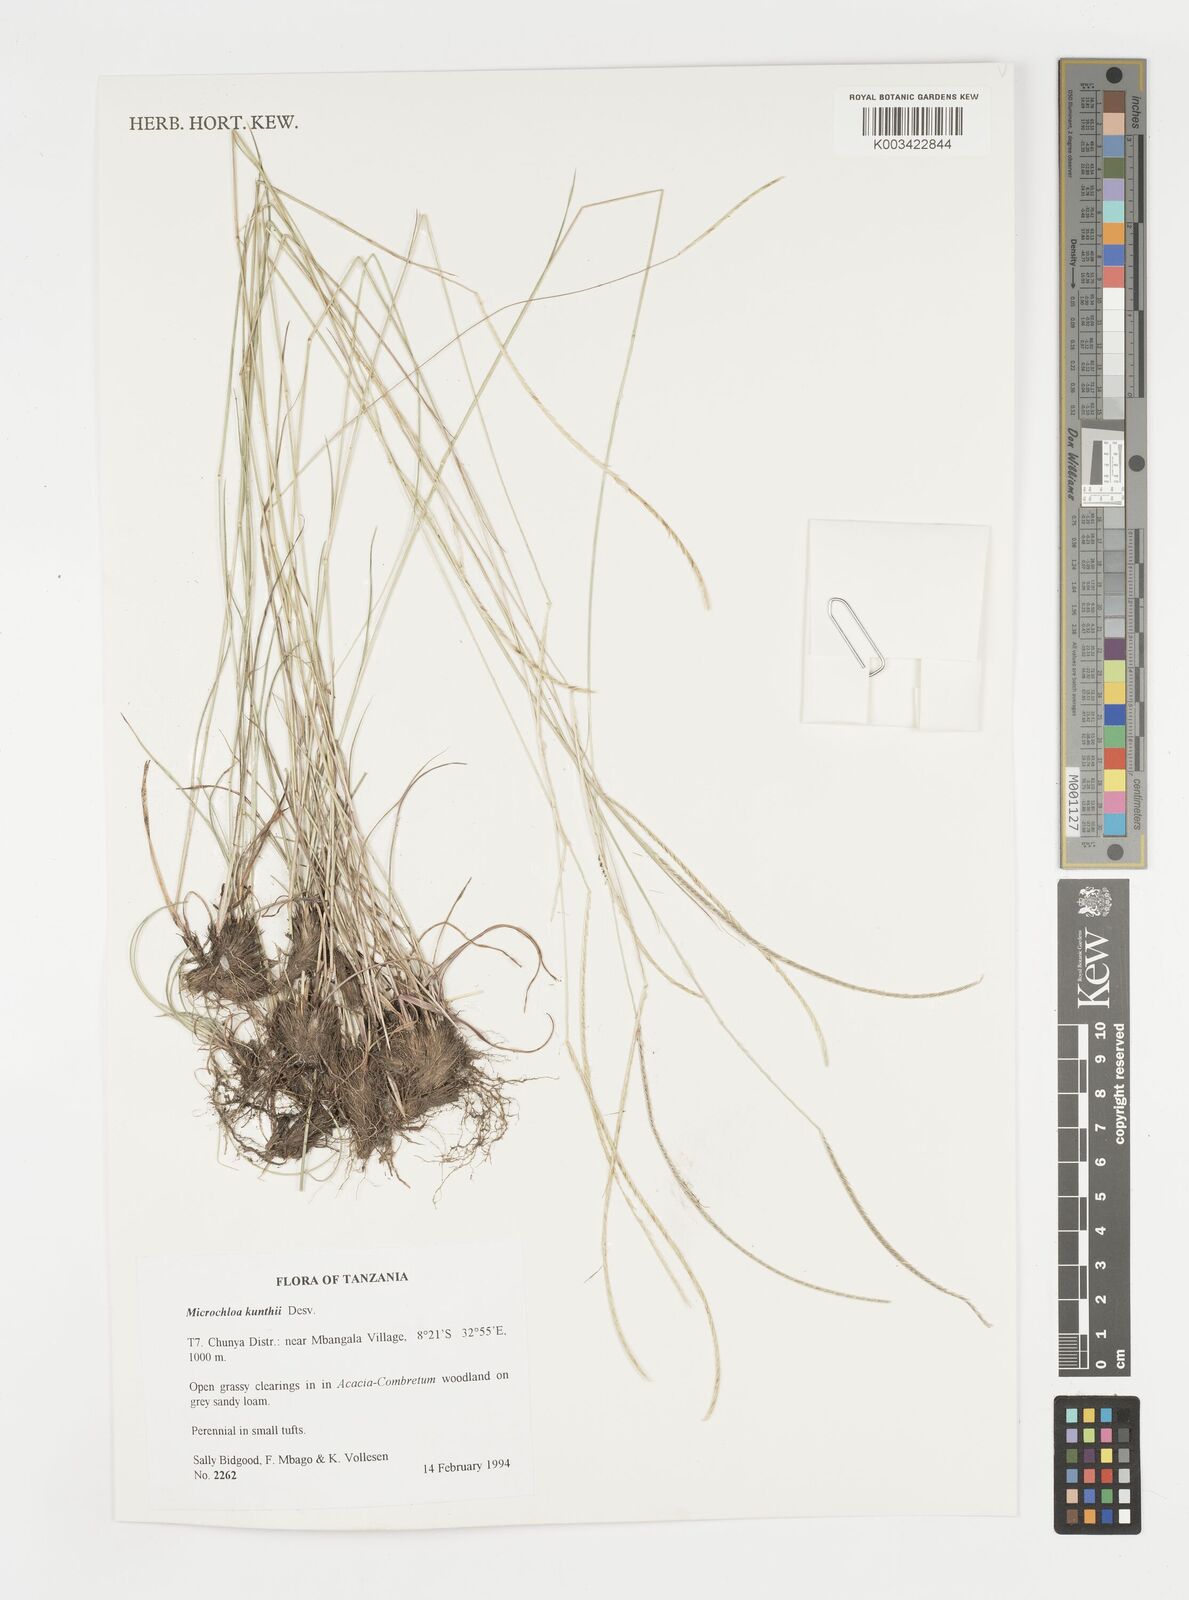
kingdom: Plantae
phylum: Tracheophyta
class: Liliopsida
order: Poales
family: Poaceae
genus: Microchloa
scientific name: Microchloa kunthii
